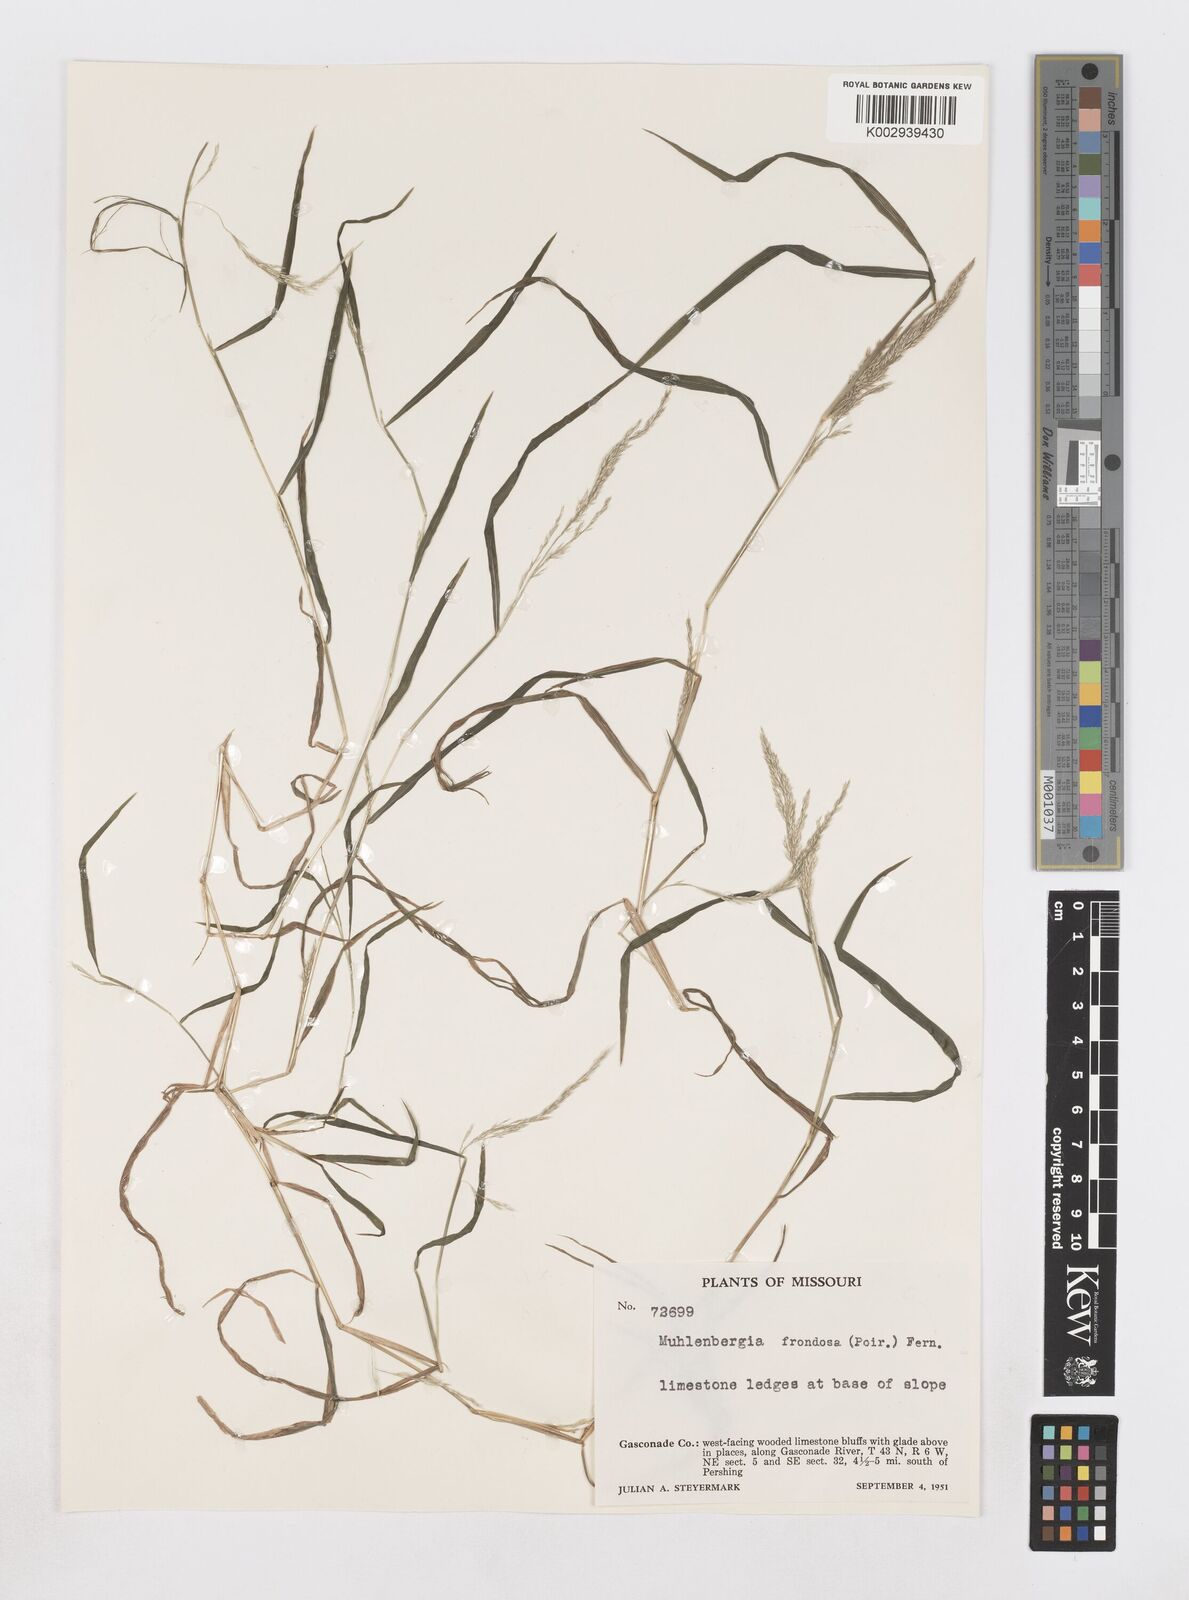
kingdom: Plantae
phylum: Tracheophyta
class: Liliopsida
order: Poales
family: Poaceae
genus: Muhlenbergia
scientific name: Muhlenbergia frondosa
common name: Common satingrass
